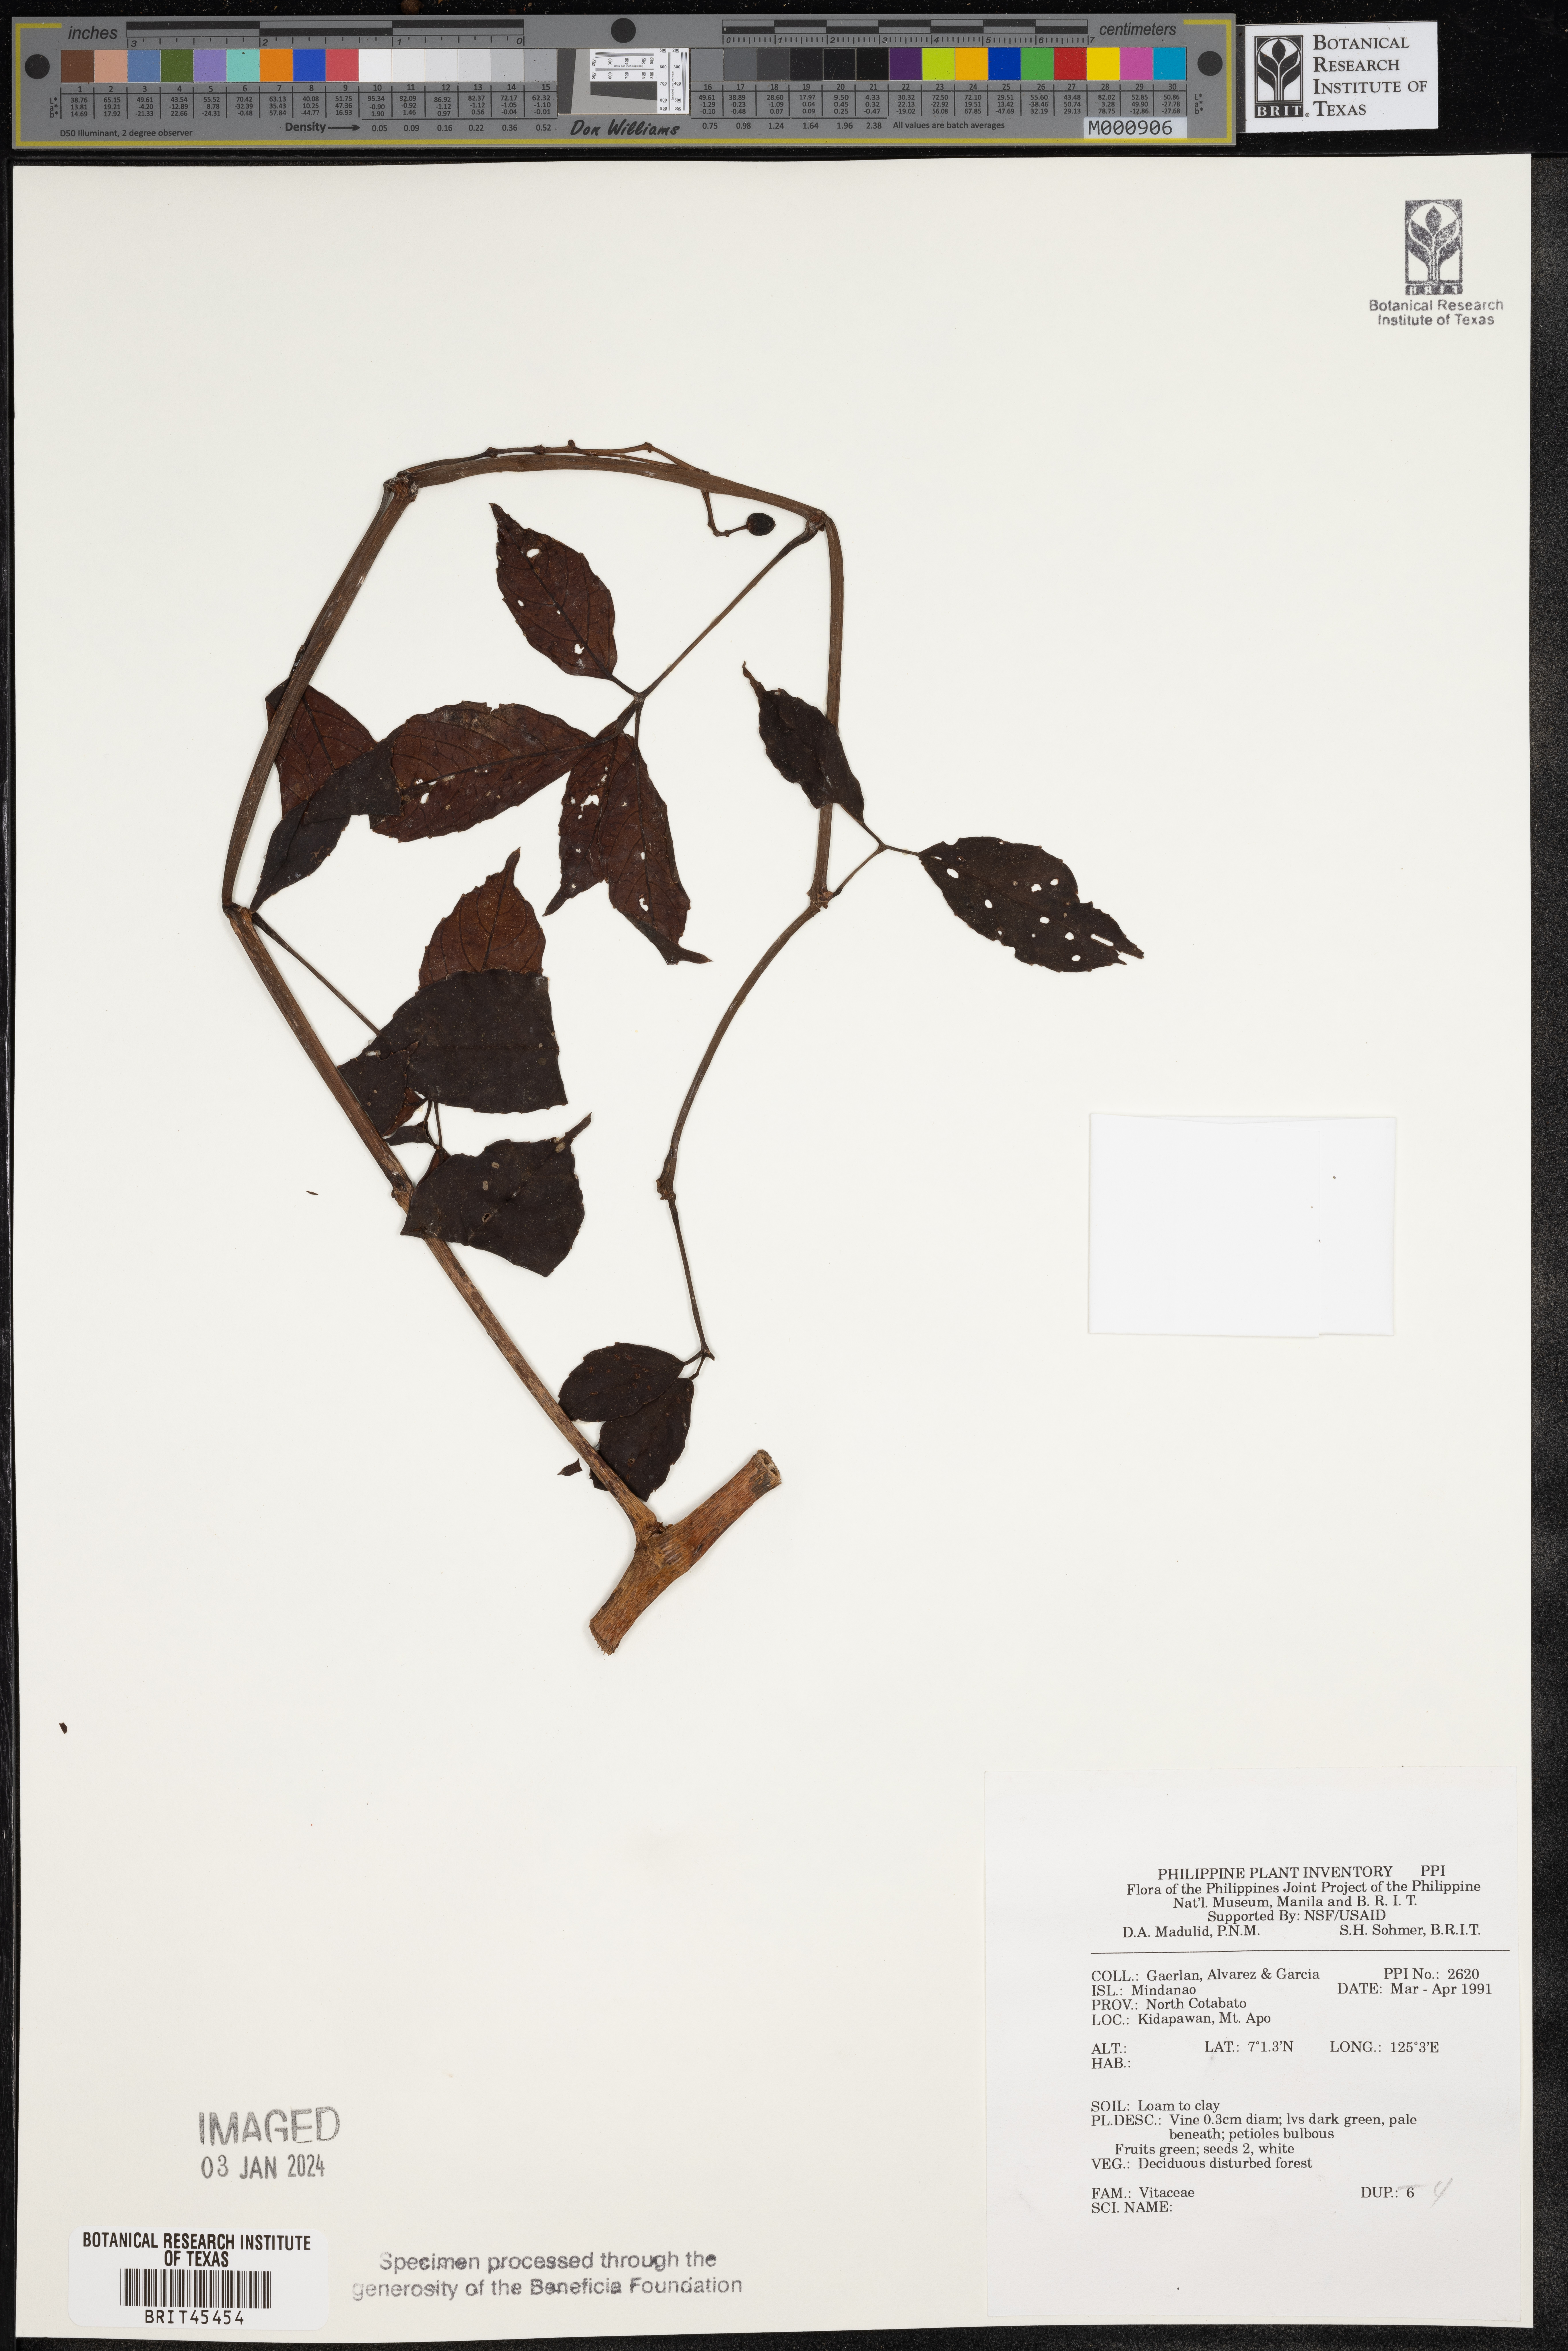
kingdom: Plantae
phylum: Tracheophyta
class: Magnoliopsida
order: Vitales
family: Vitaceae
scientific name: Vitaceae
